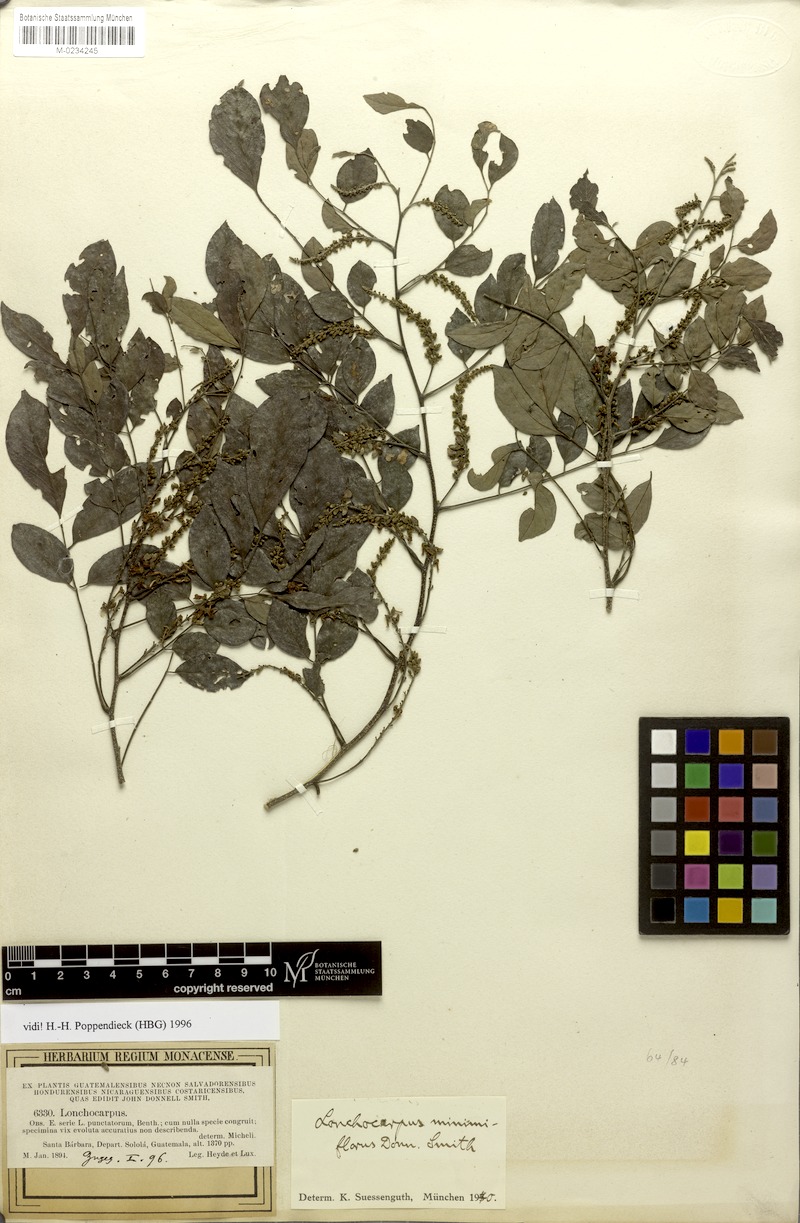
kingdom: Plantae
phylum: Tracheophyta
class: Magnoliopsida
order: Fabales
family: Fabaceae
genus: Lonchocarpus
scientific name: Lonchocarpus minimiflorus
